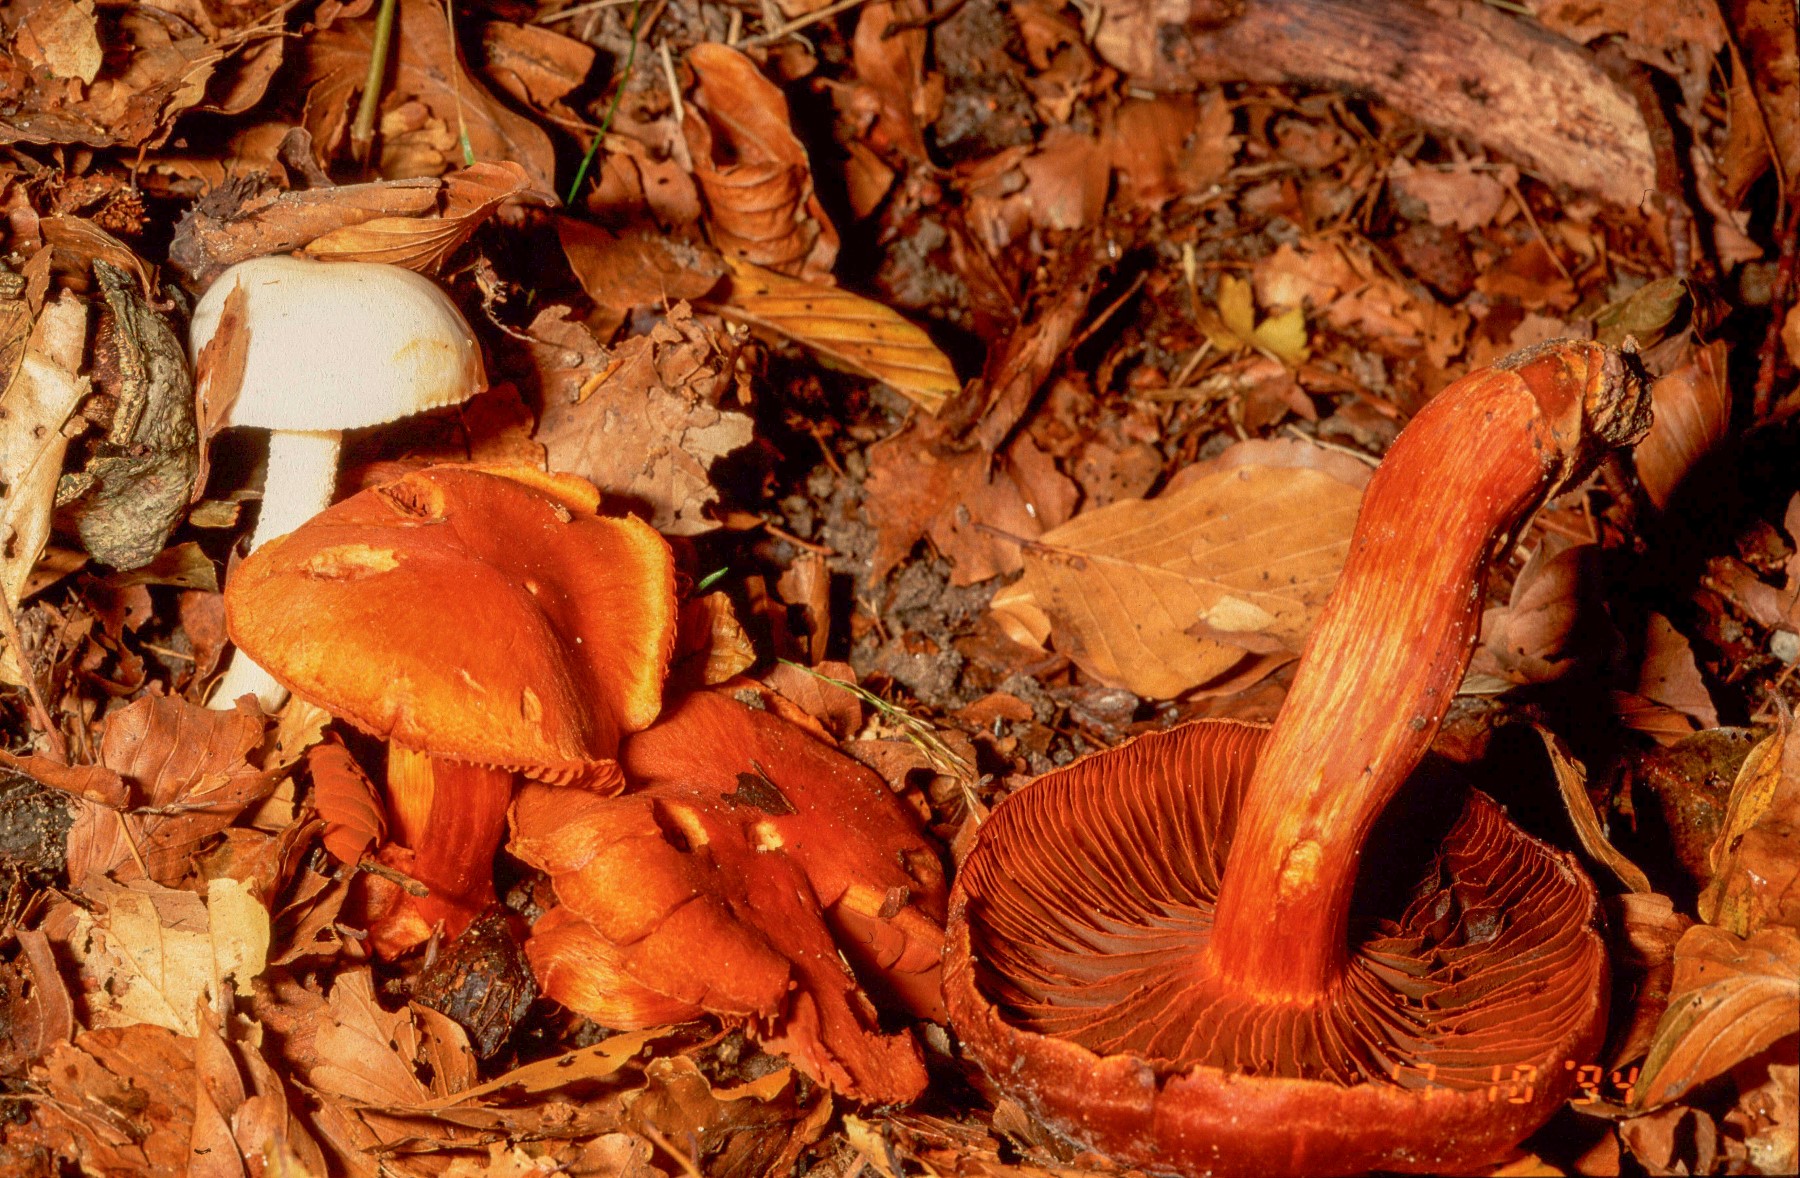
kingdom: Fungi
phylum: Basidiomycota
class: Agaricomycetes
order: Agaricales
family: Cortinariaceae
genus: Cortinarius
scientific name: Cortinarius cinnabarinus
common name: cinnober-slørhat
